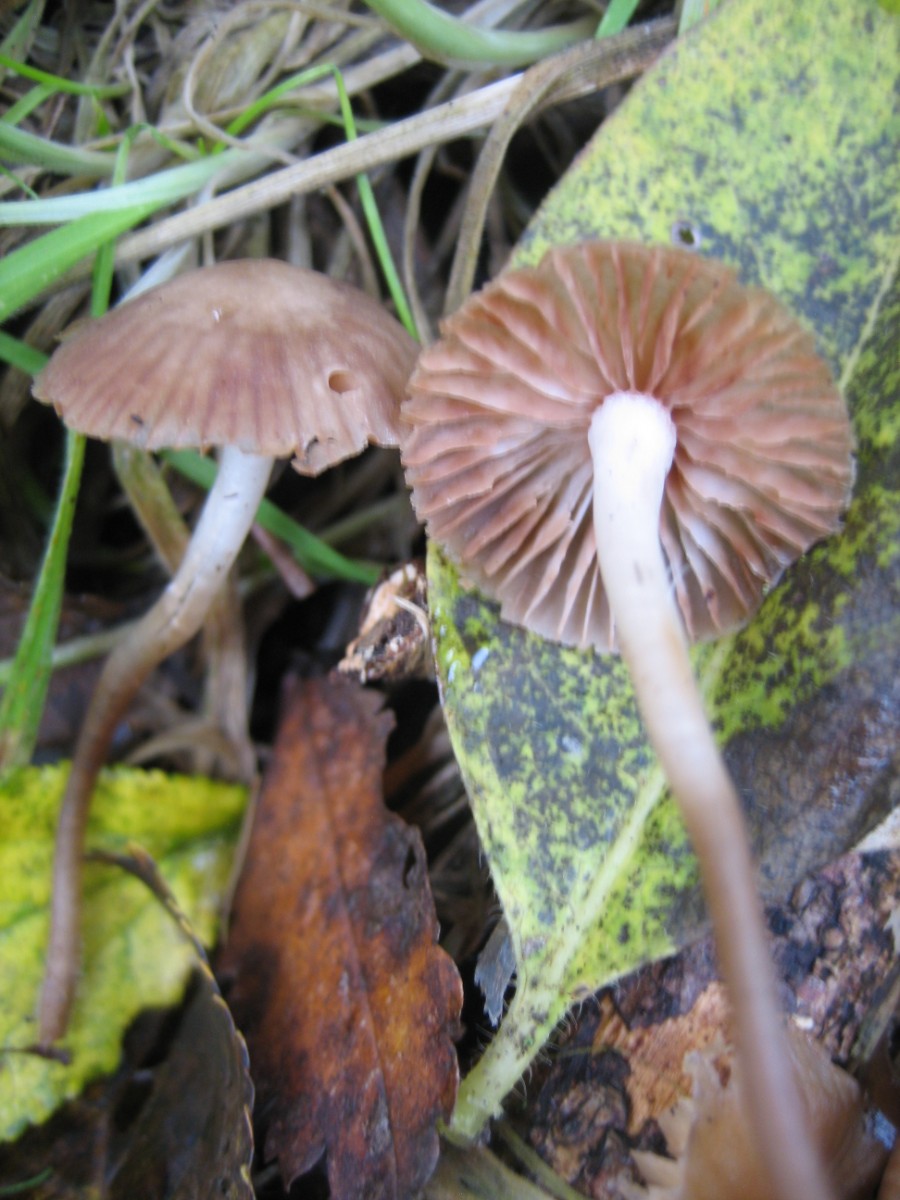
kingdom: Fungi
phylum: Basidiomycota
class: Agaricomycetes
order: Agaricales
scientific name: Agaricales
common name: champignonordenen
